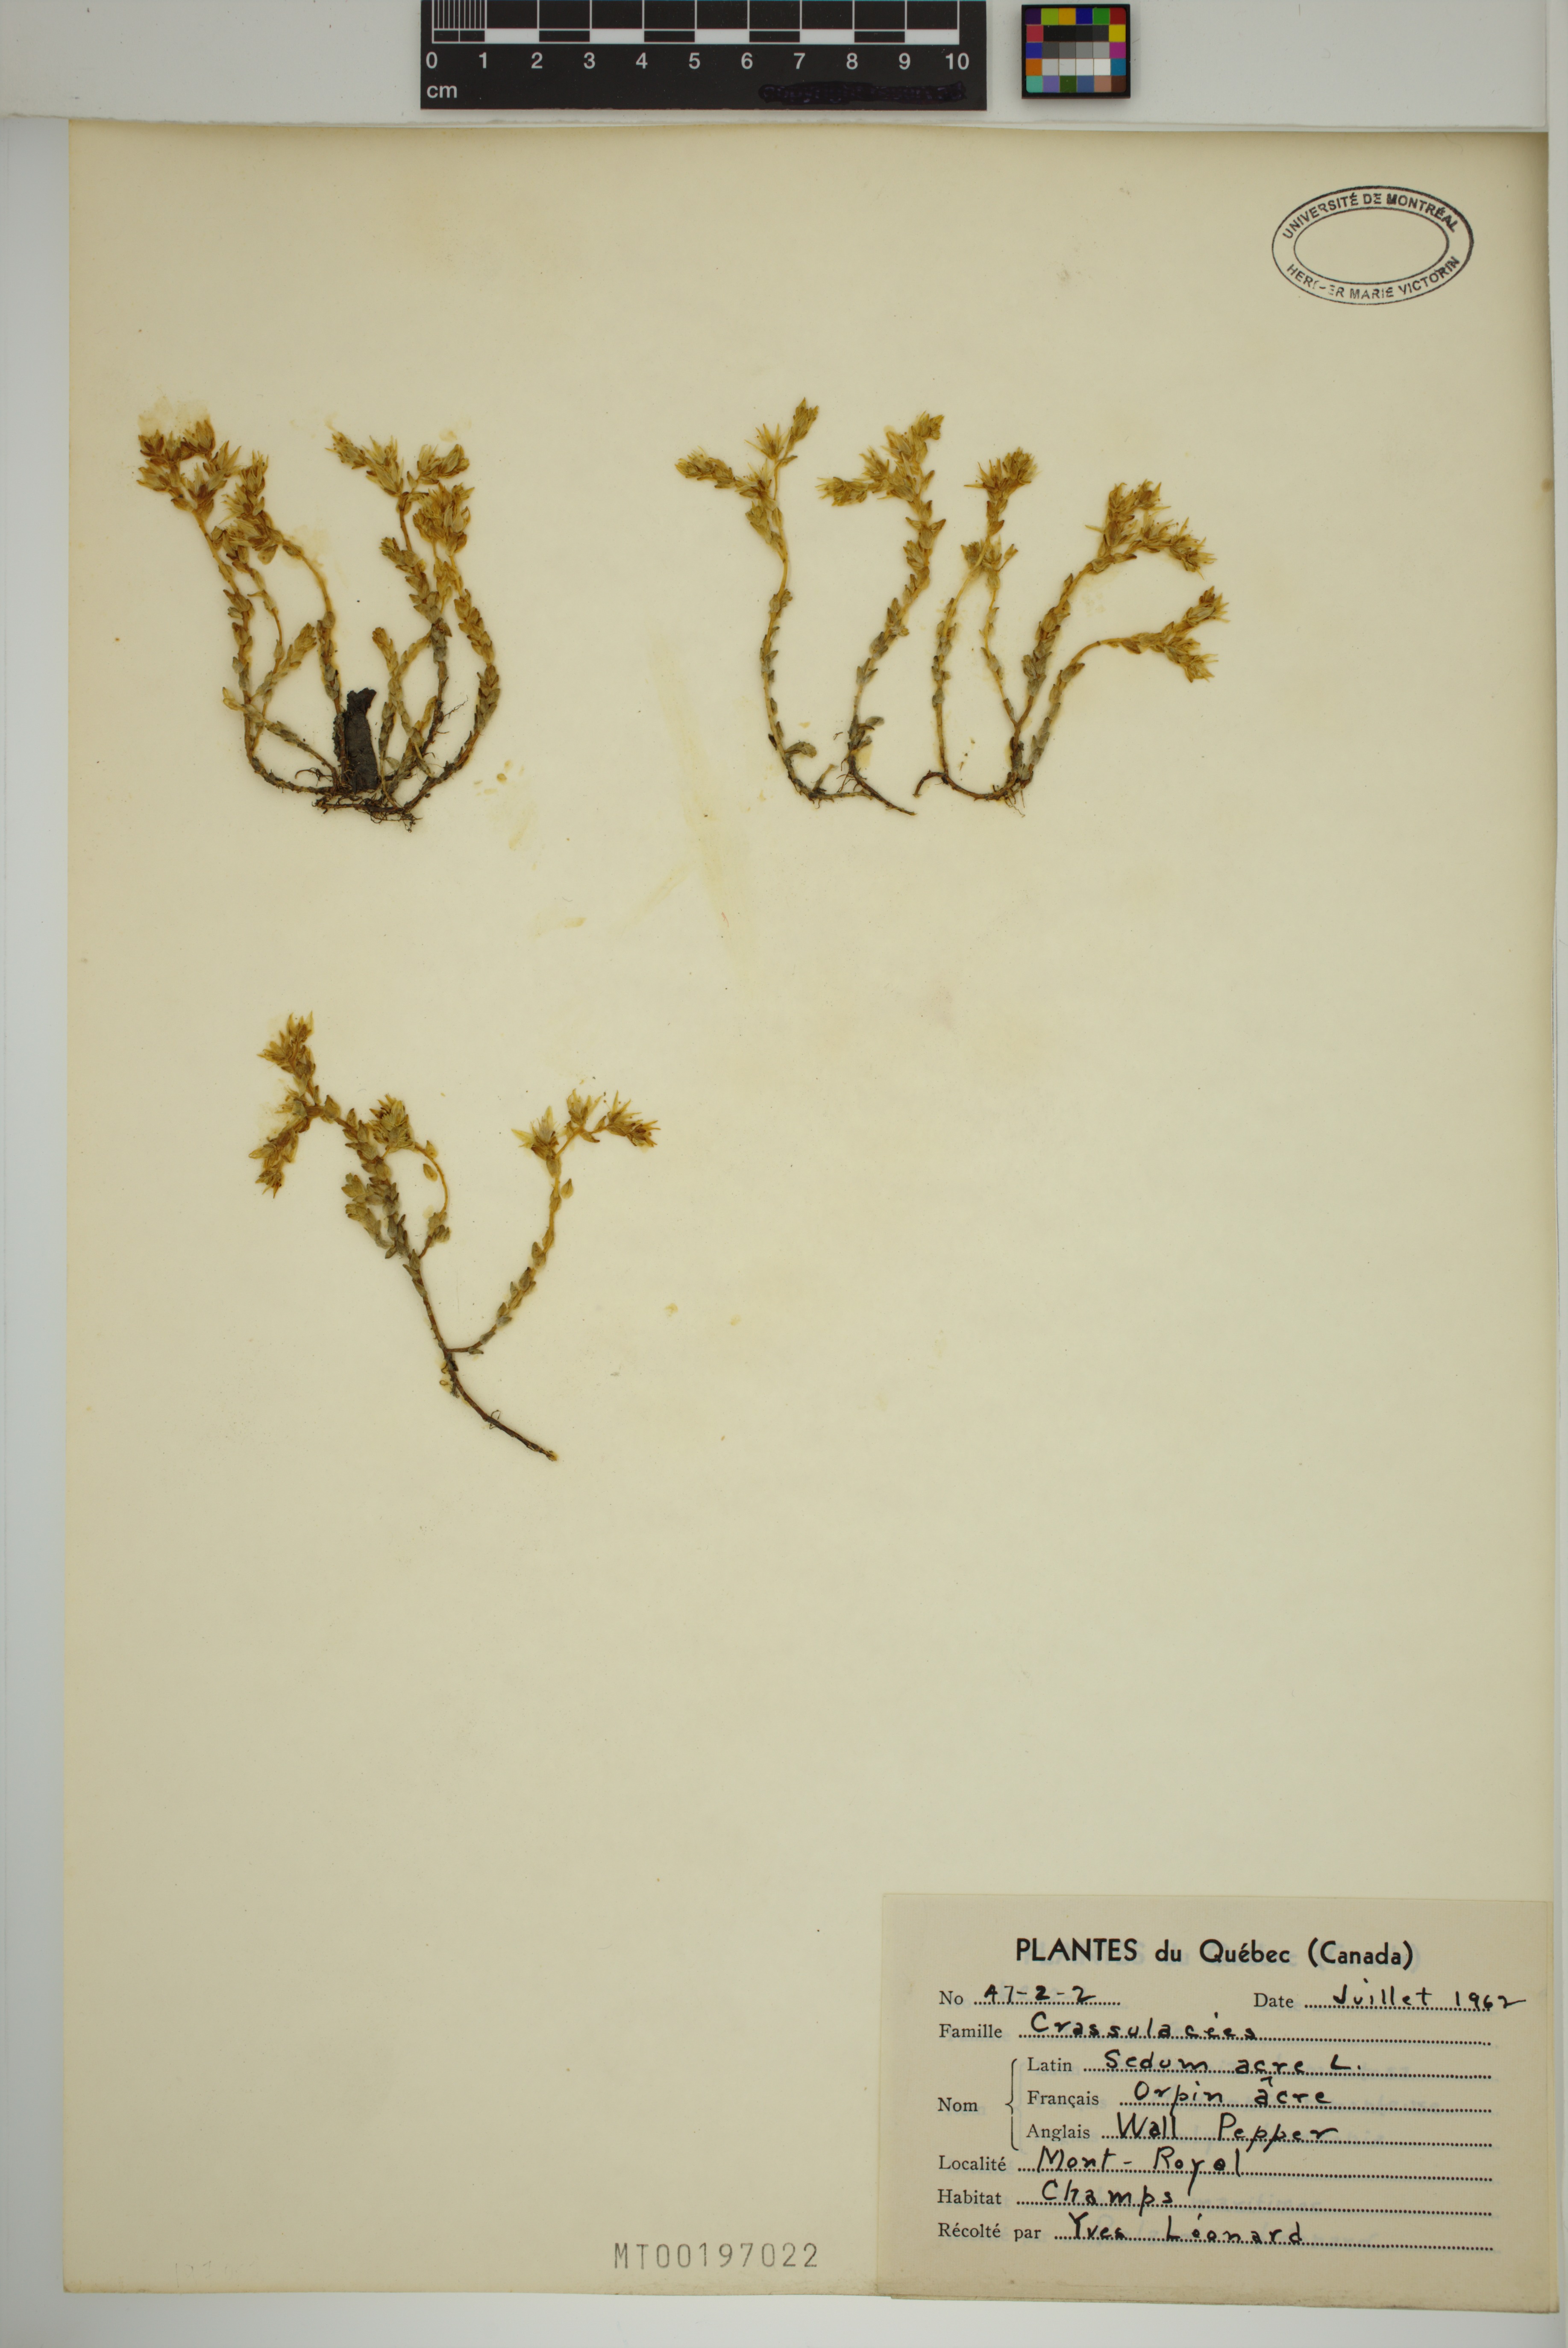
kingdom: Plantae
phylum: Tracheophyta
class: Magnoliopsida
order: Saxifragales
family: Crassulaceae
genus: Sedum
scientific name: Sedum acre
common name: Biting stonecrop
